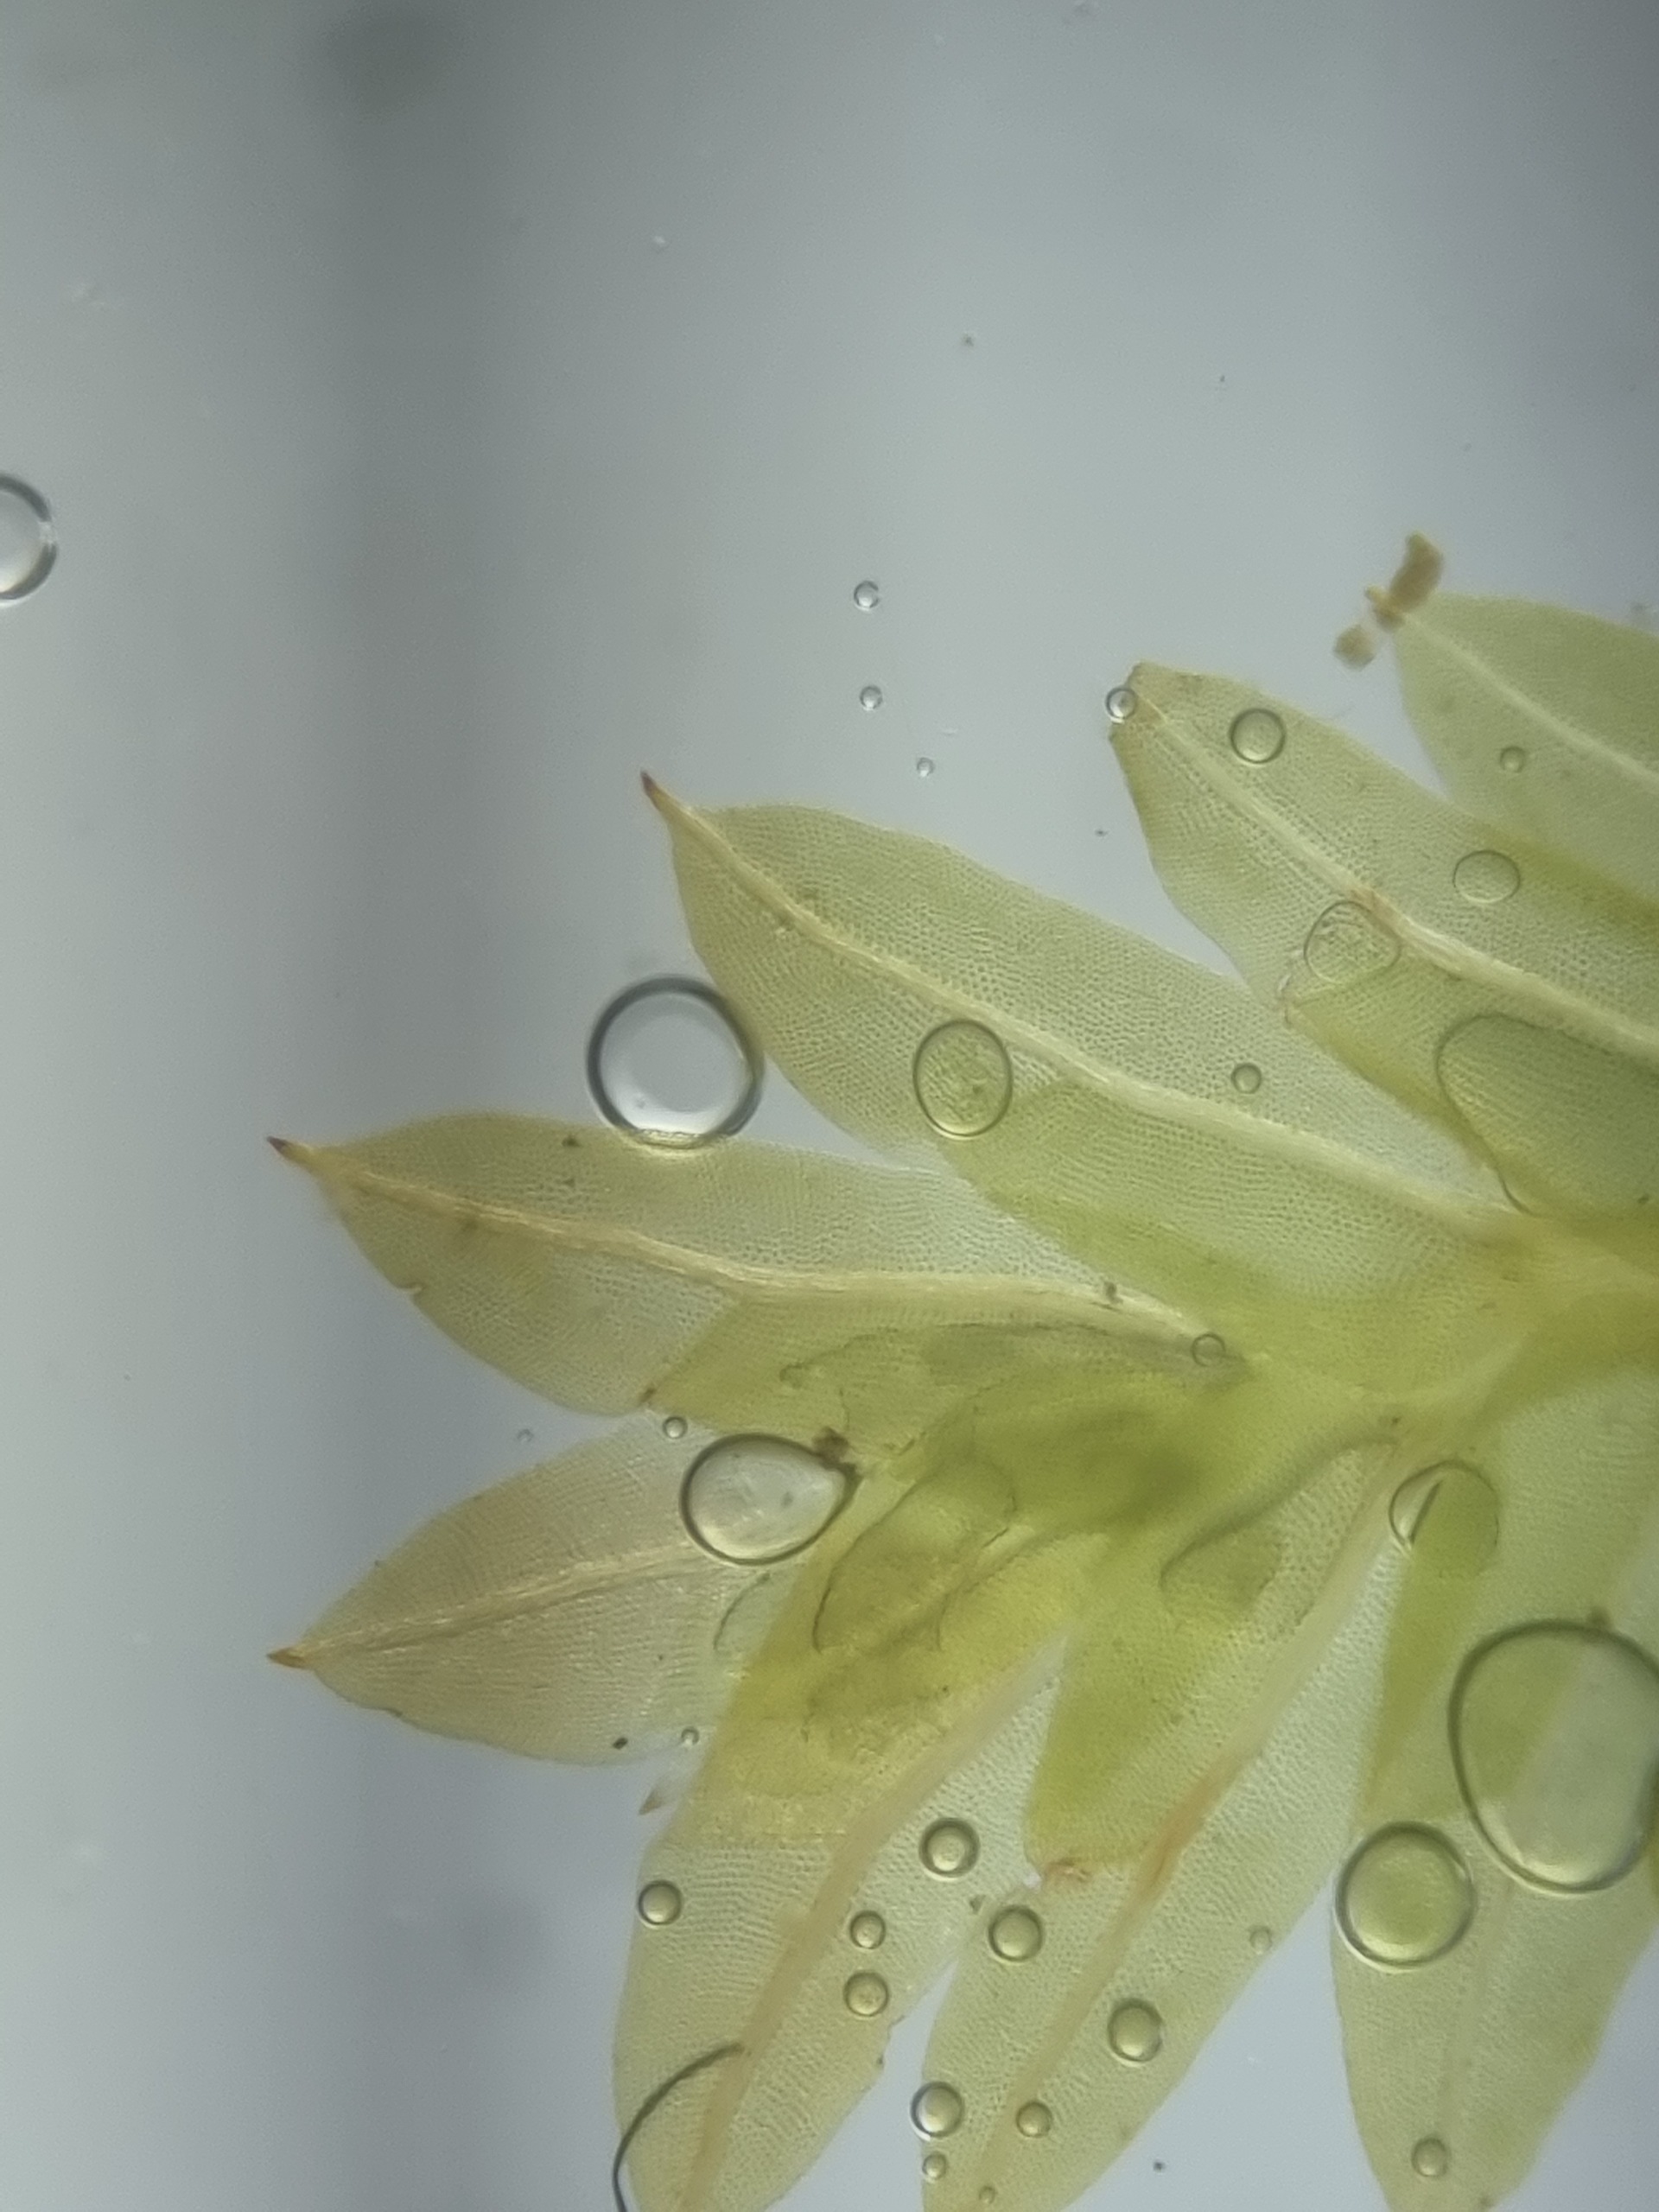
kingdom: Plantae
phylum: Bryophyta
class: Bryopsida
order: Dicranales
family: Fissidentaceae
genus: Fissidens
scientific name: Fissidens taxifolius
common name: Taksbladet rademos
